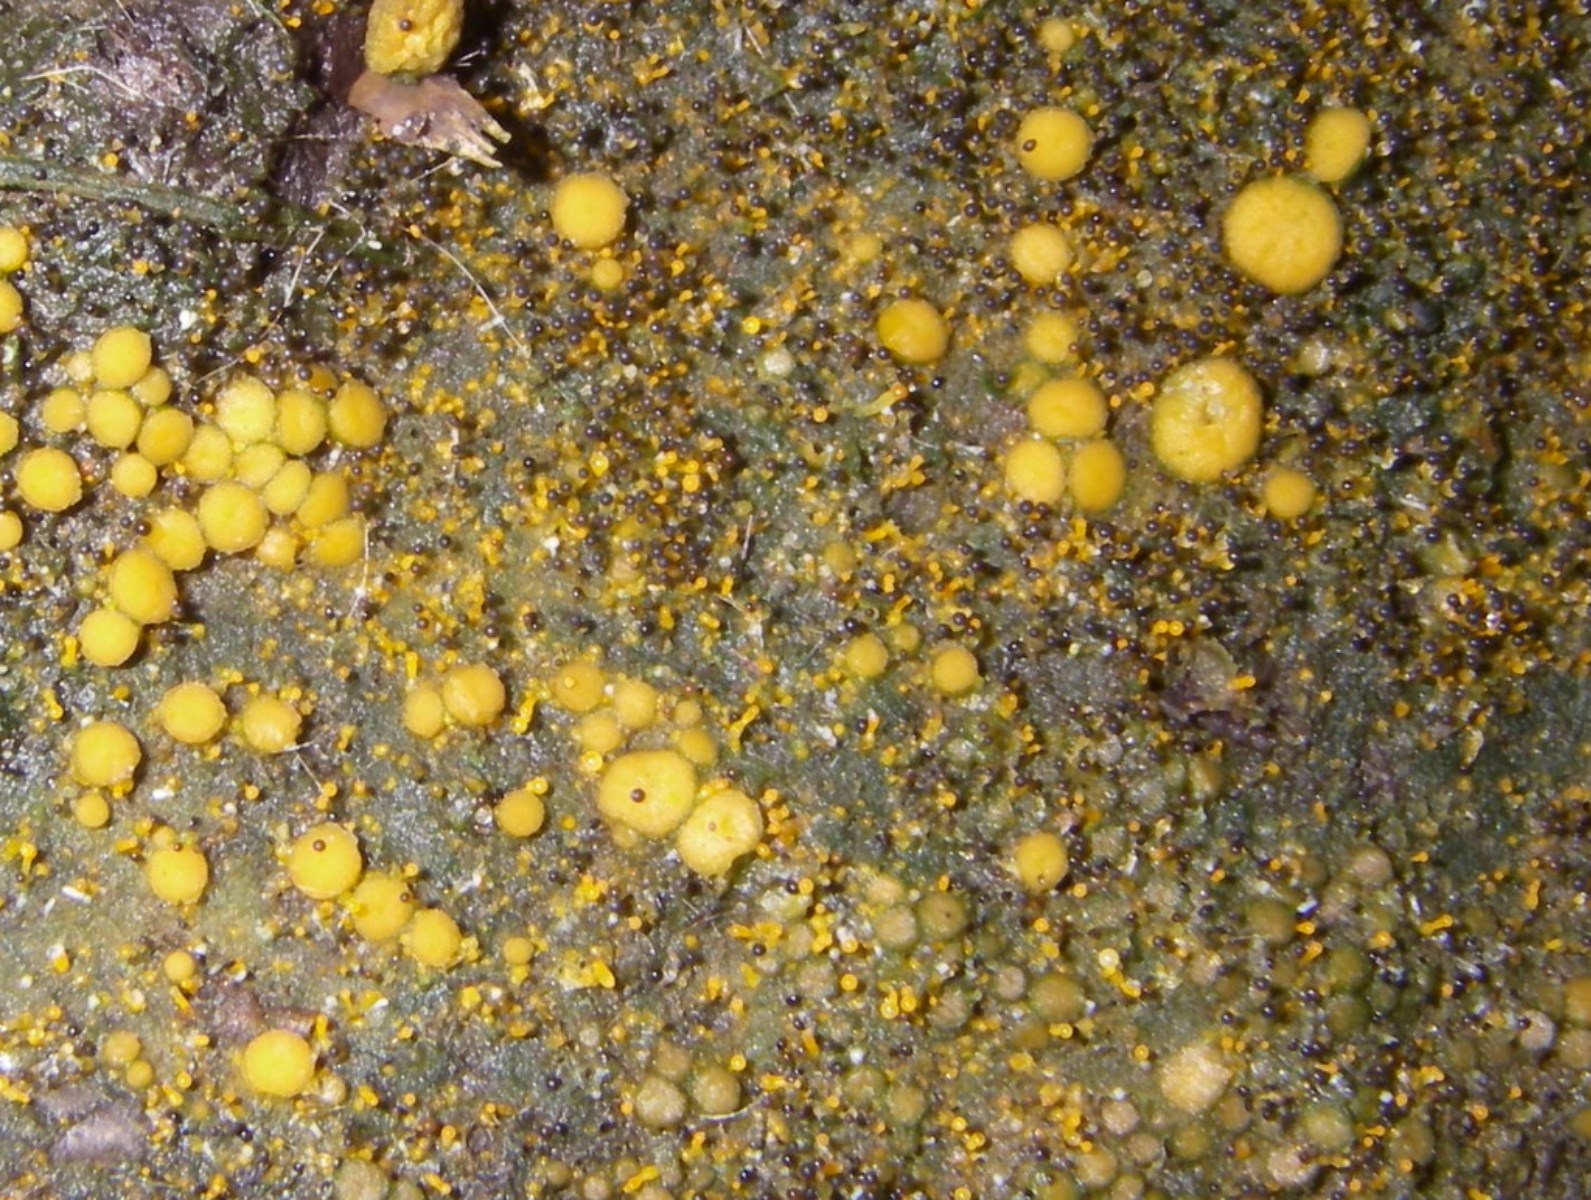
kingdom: Fungi
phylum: Ascomycota
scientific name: Ascomycota
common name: sæksvampe
